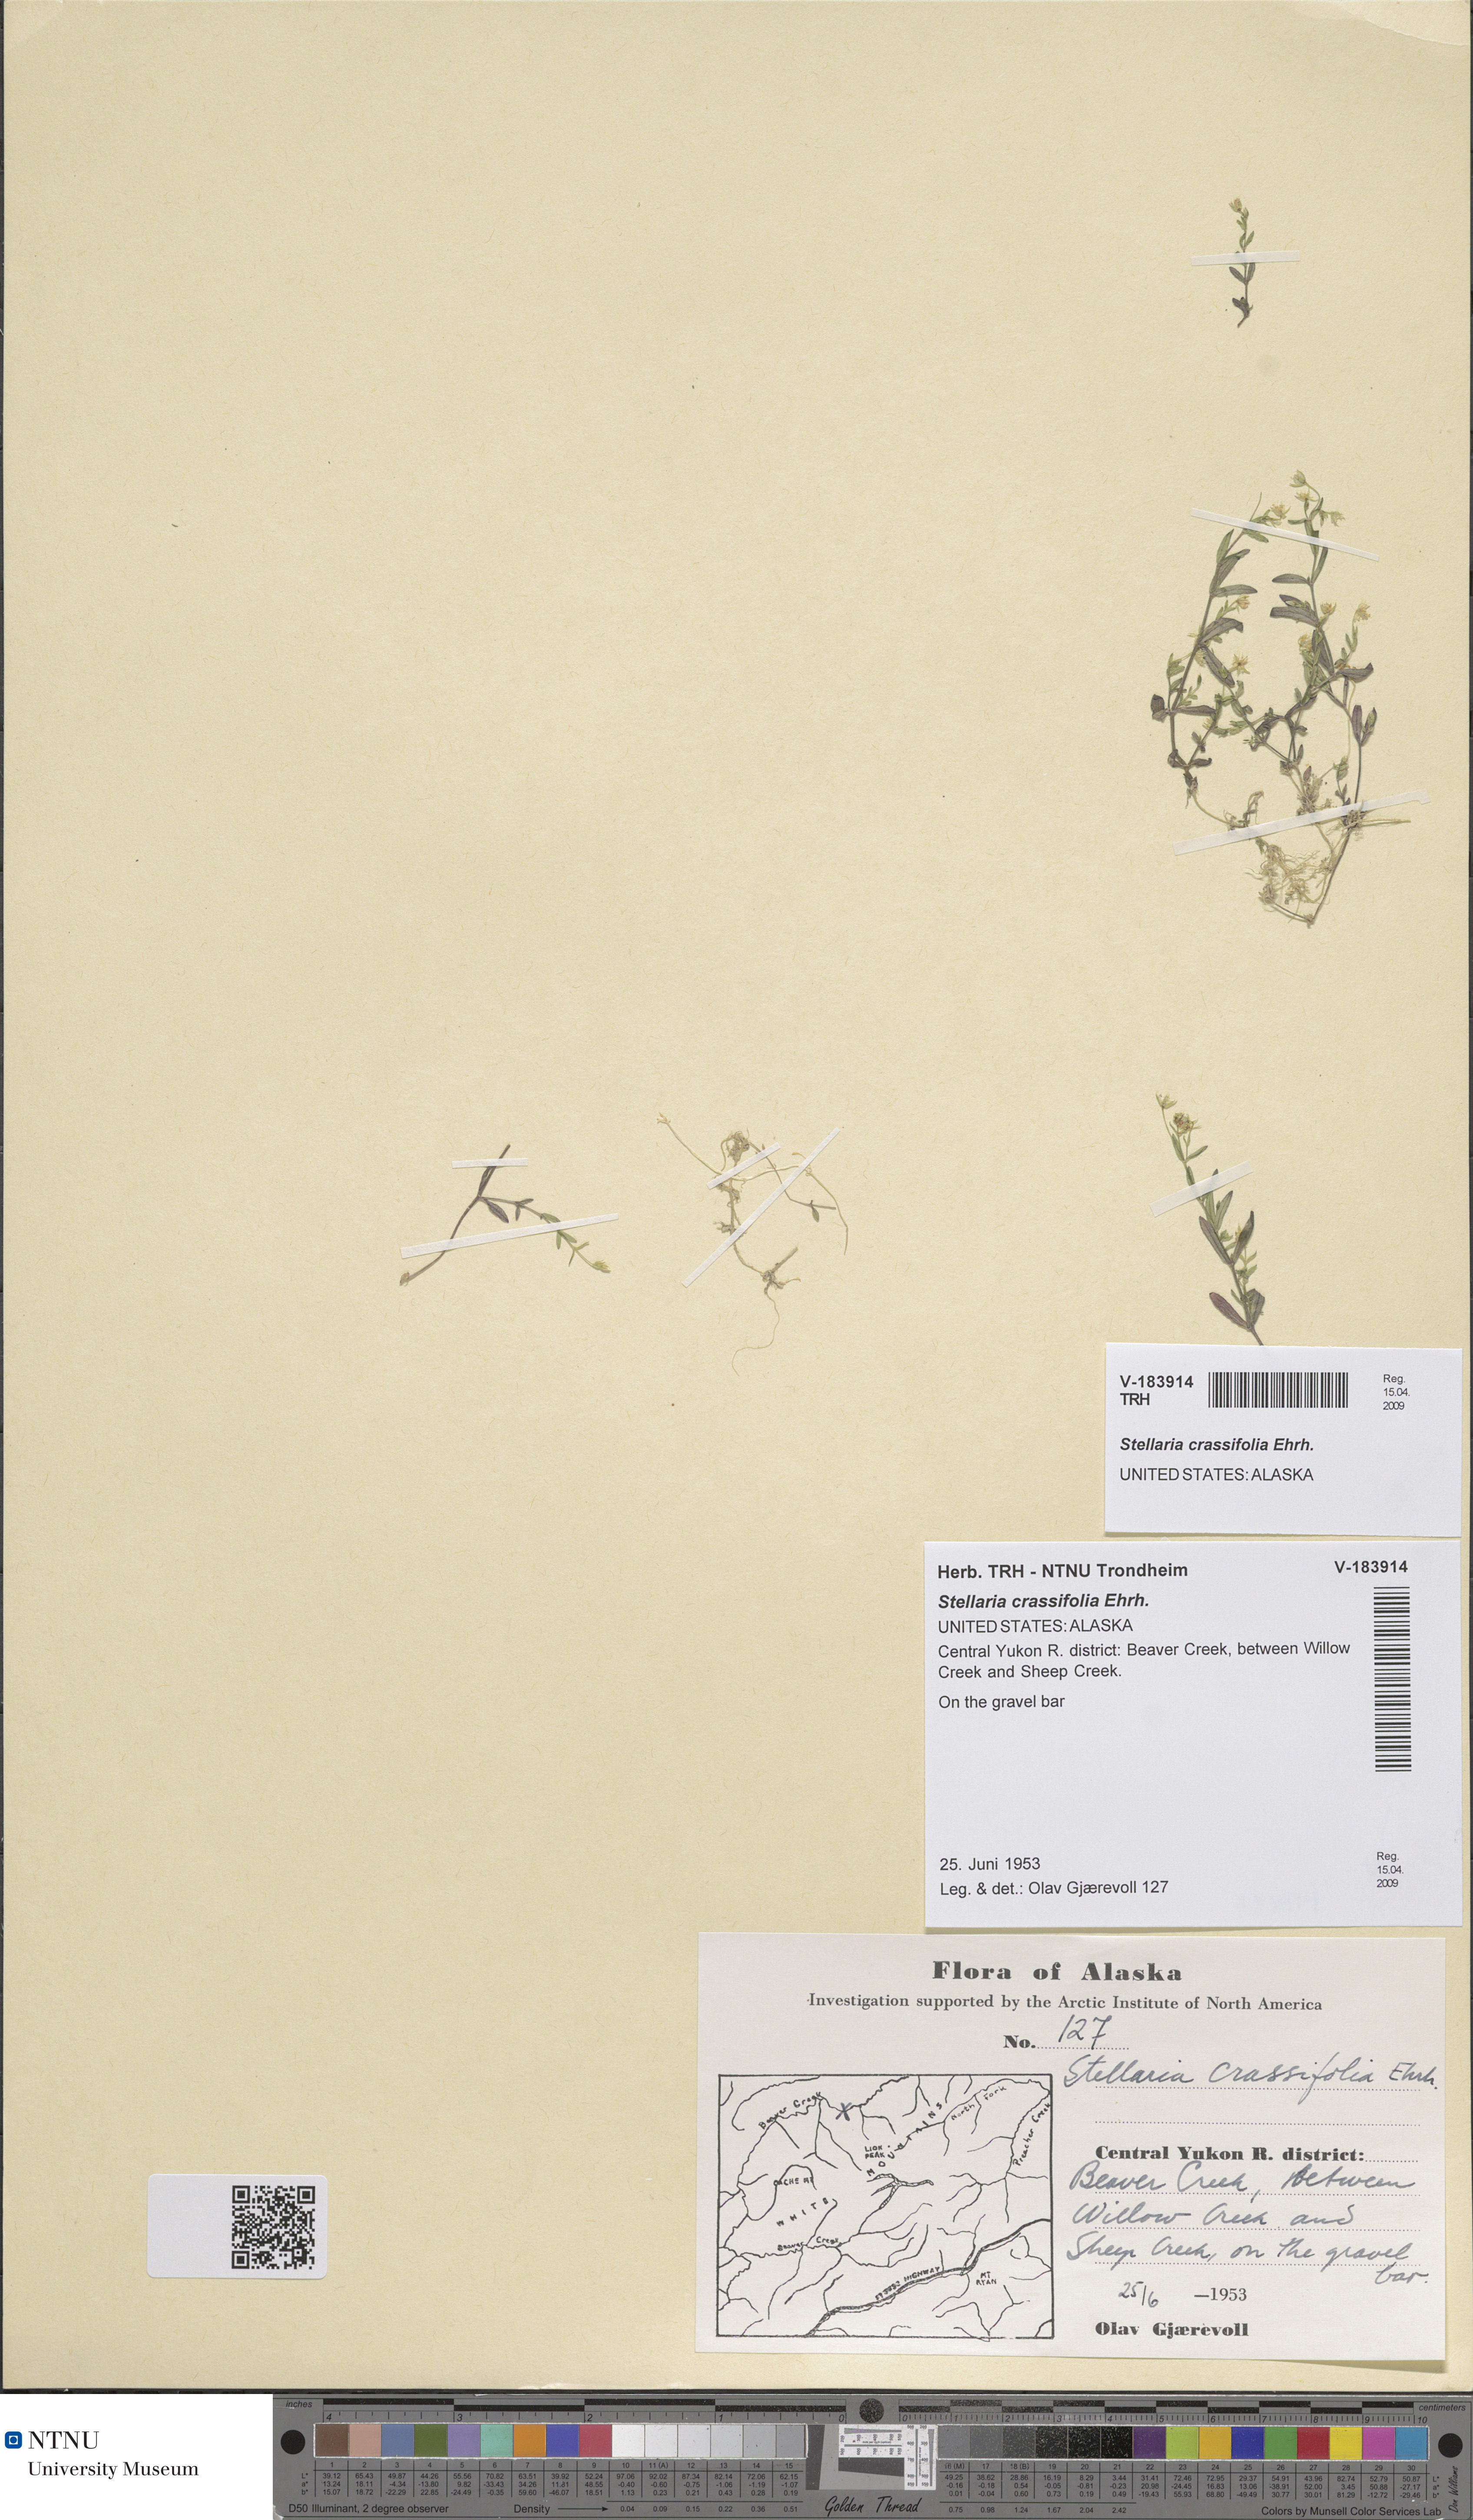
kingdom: Plantae
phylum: Tracheophyta
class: Magnoliopsida
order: Caryophyllales
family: Caryophyllaceae
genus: Stellaria
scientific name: Stellaria crassifolia
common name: Fleshy starwort
